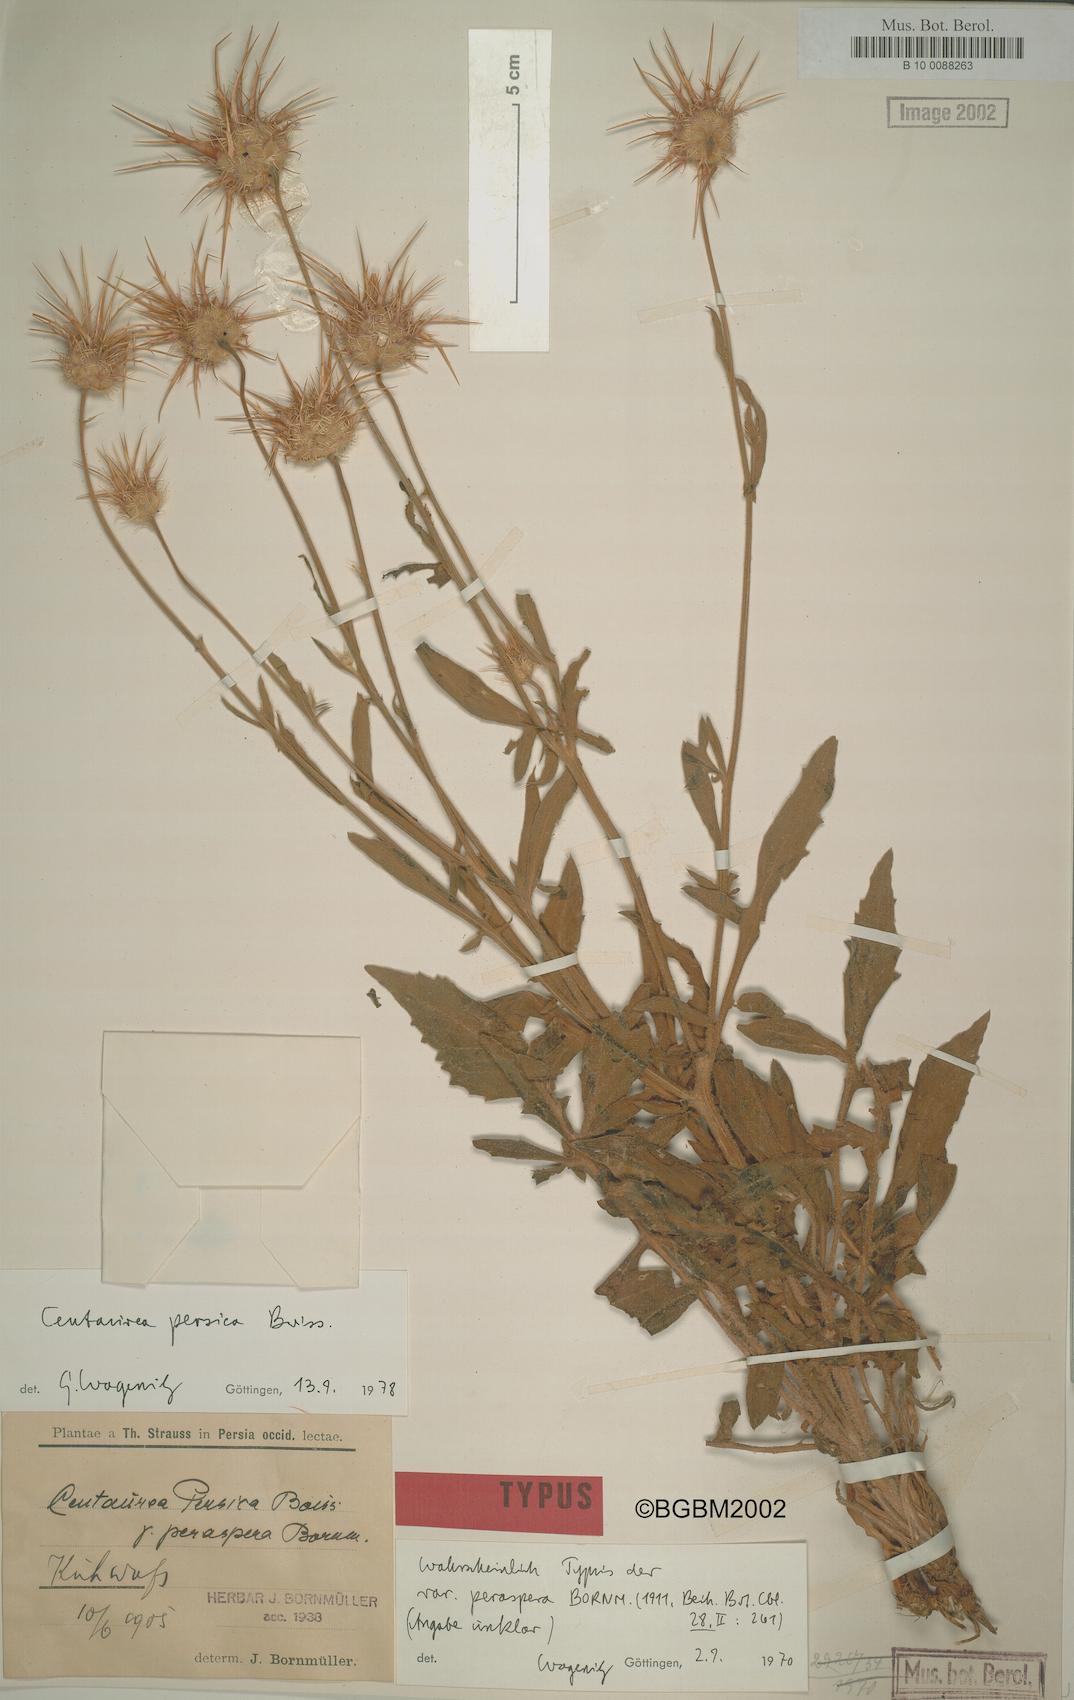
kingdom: Plantae
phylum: Tracheophyta
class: Magnoliopsida
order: Asterales
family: Asteraceae
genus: Centaurea
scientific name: Centaurea persica
